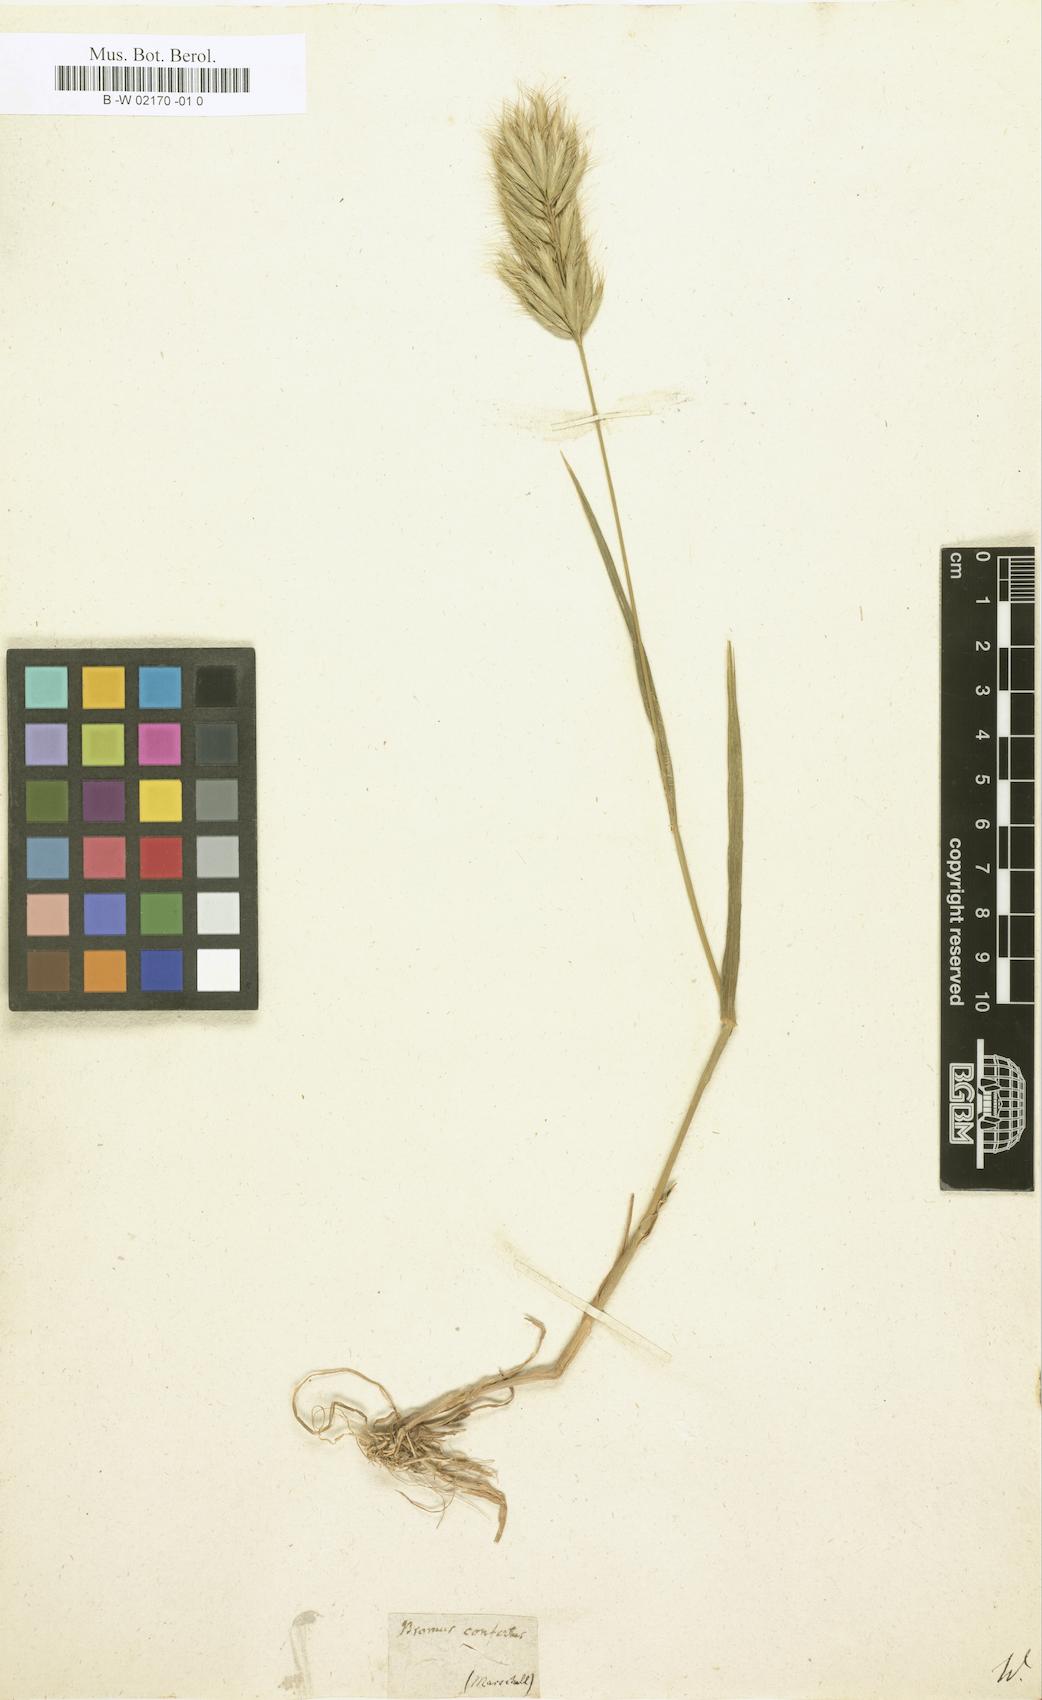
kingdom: Plantae
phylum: Tracheophyta
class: Liliopsida
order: Poales
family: Poaceae
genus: Bromus
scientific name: Bromus
